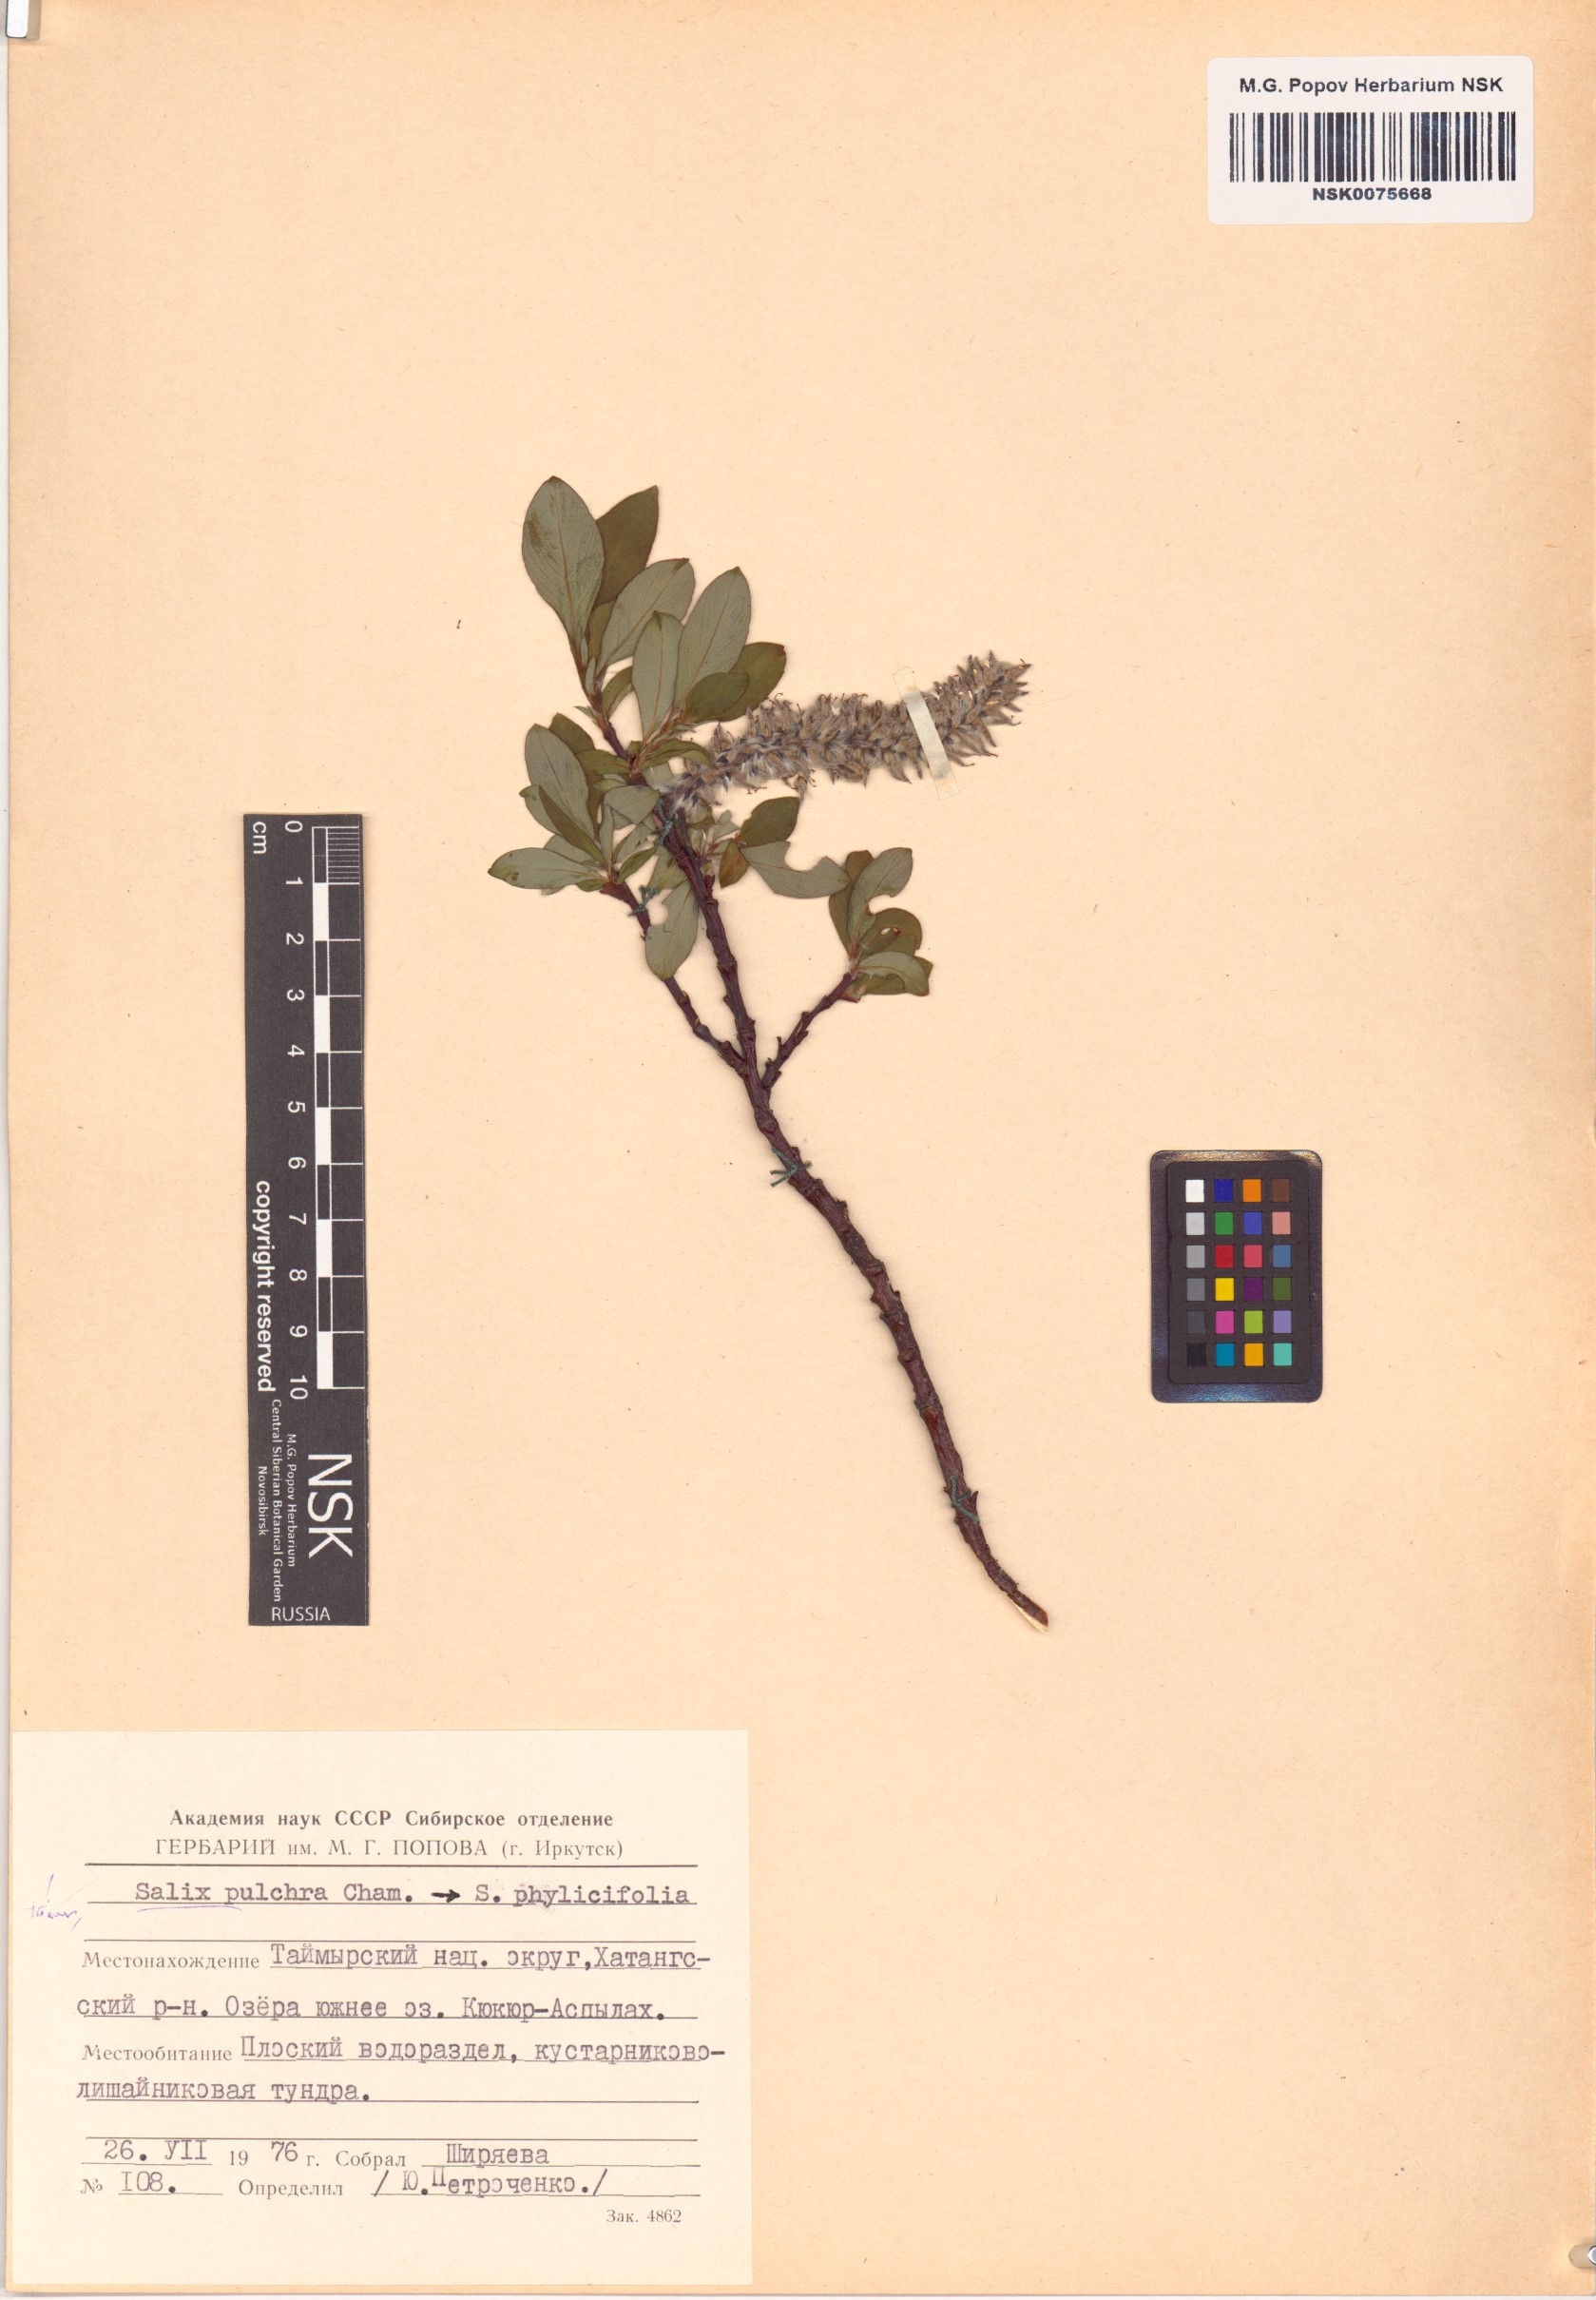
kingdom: Plantae
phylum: Tracheophyta
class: Magnoliopsida
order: Malpighiales
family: Salicaceae
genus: Salix
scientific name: Salix pulchra
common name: Diamond-leaved willow
